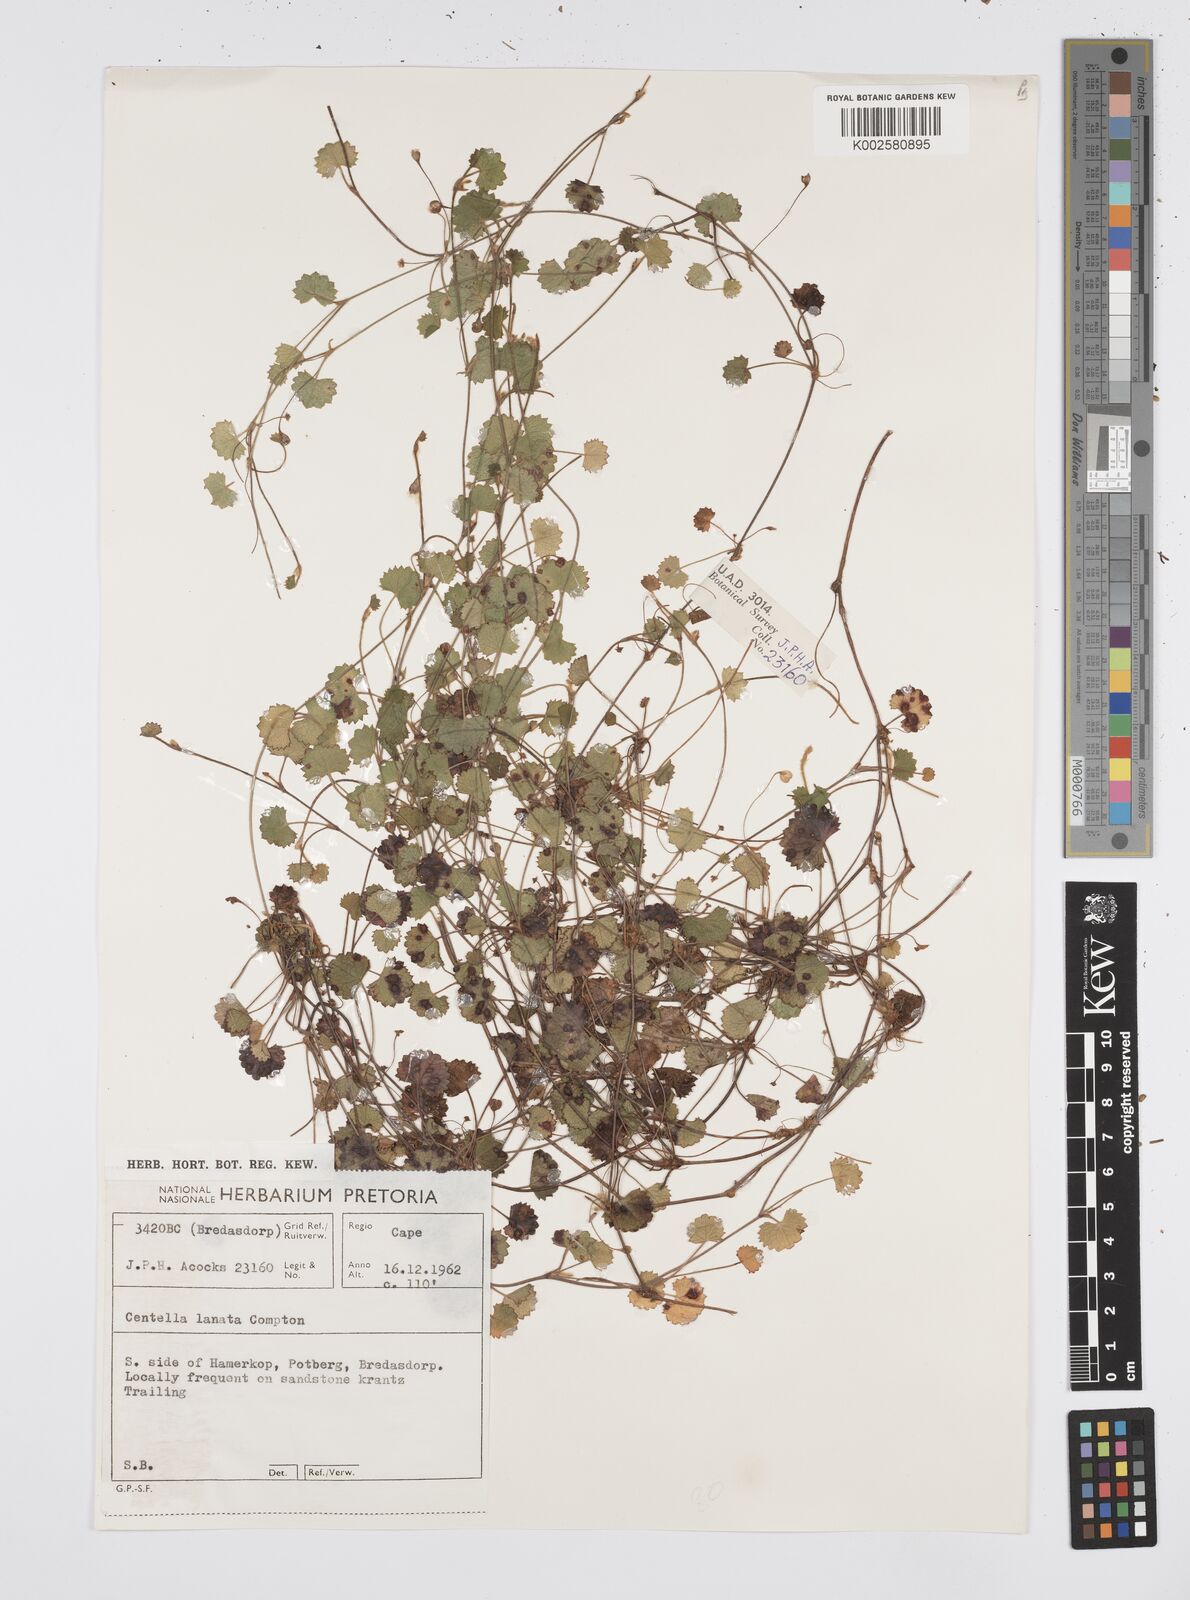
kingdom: Plantae
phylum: Tracheophyta
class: Magnoliopsida
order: Apiales
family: Apiaceae
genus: Centella
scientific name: Centella
